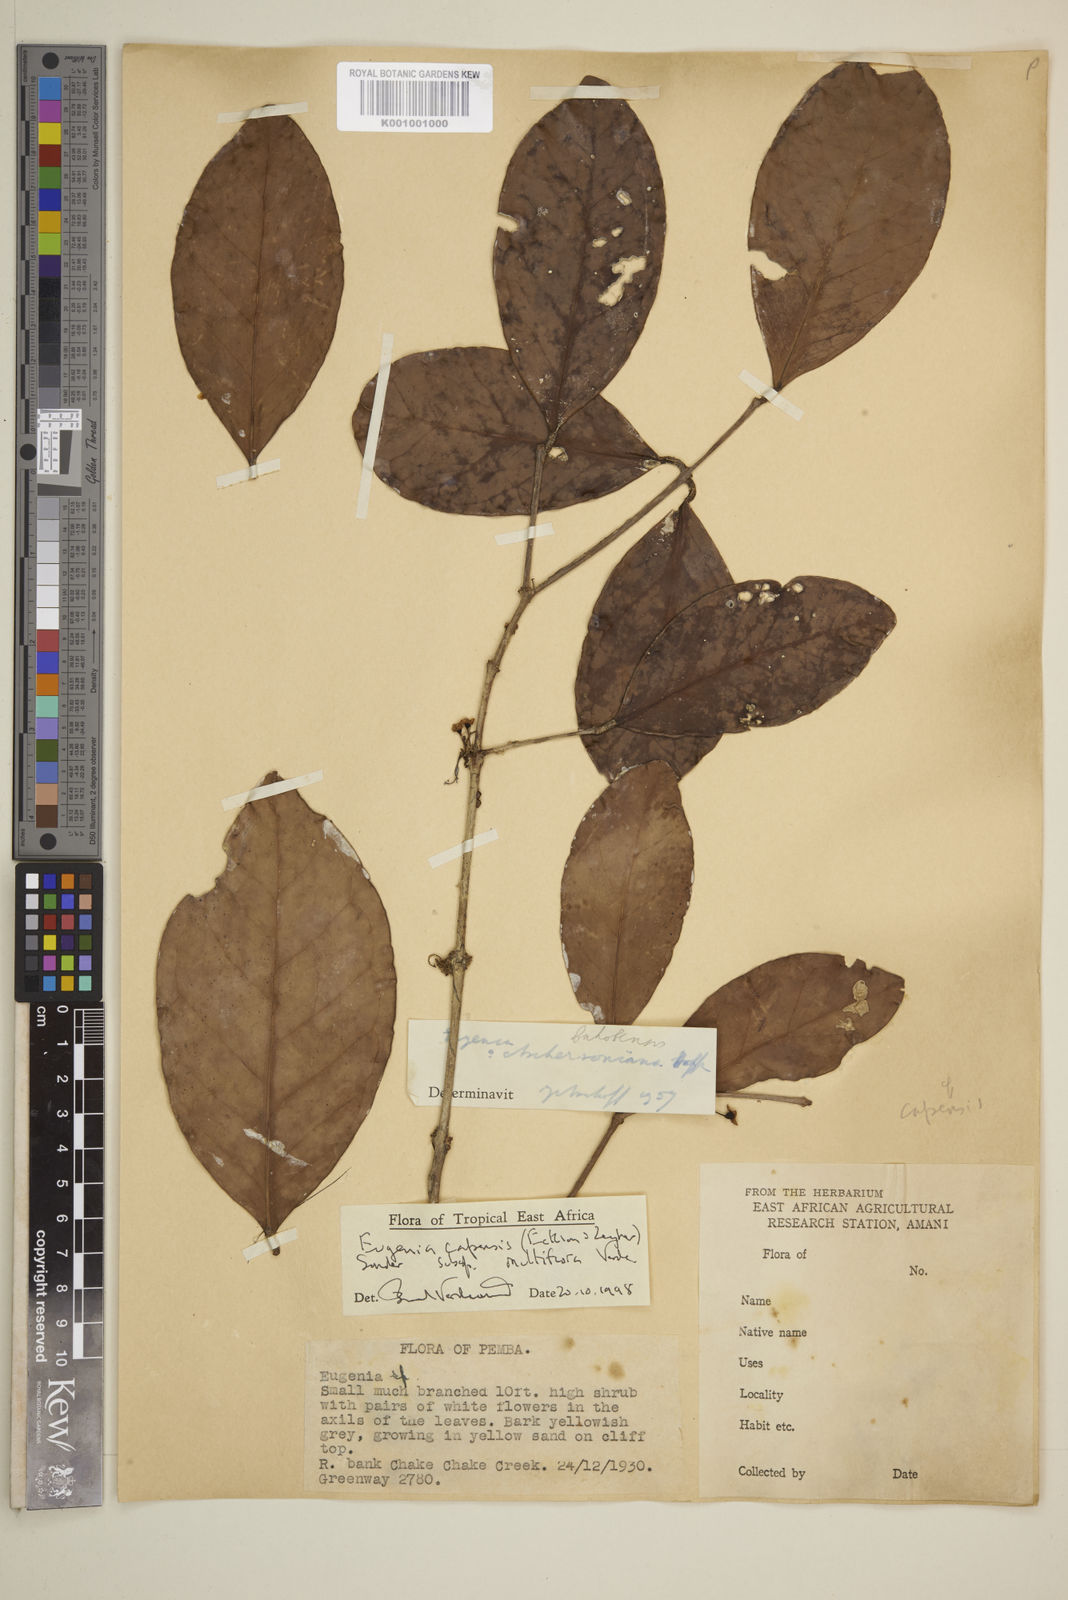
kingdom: Plantae
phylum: Tracheophyta
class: Magnoliopsida
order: Myrtales
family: Myrtaceae
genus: Eugenia
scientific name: Eugenia capensis
